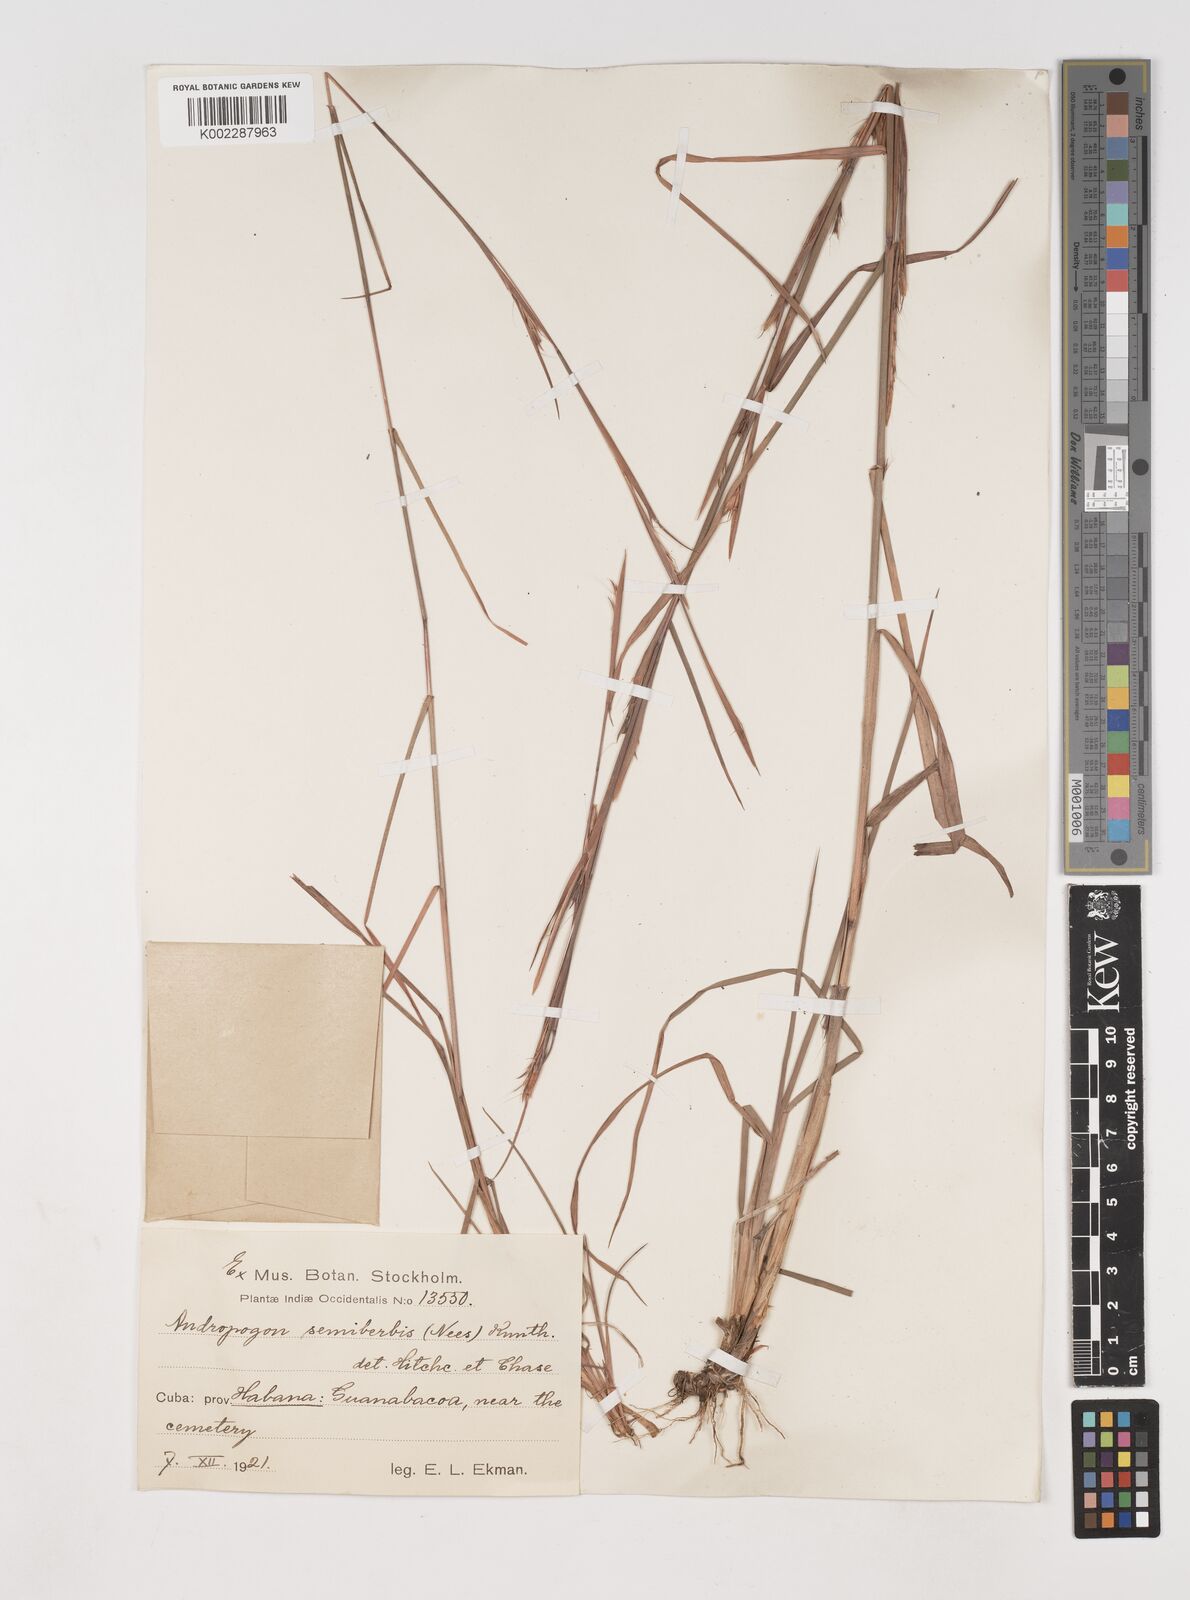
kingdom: Plantae
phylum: Tracheophyta
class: Liliopsida
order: Poales
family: Poaceae
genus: Schizachyrium
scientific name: Schizachyrium sanguineum
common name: Crimson bluestem
